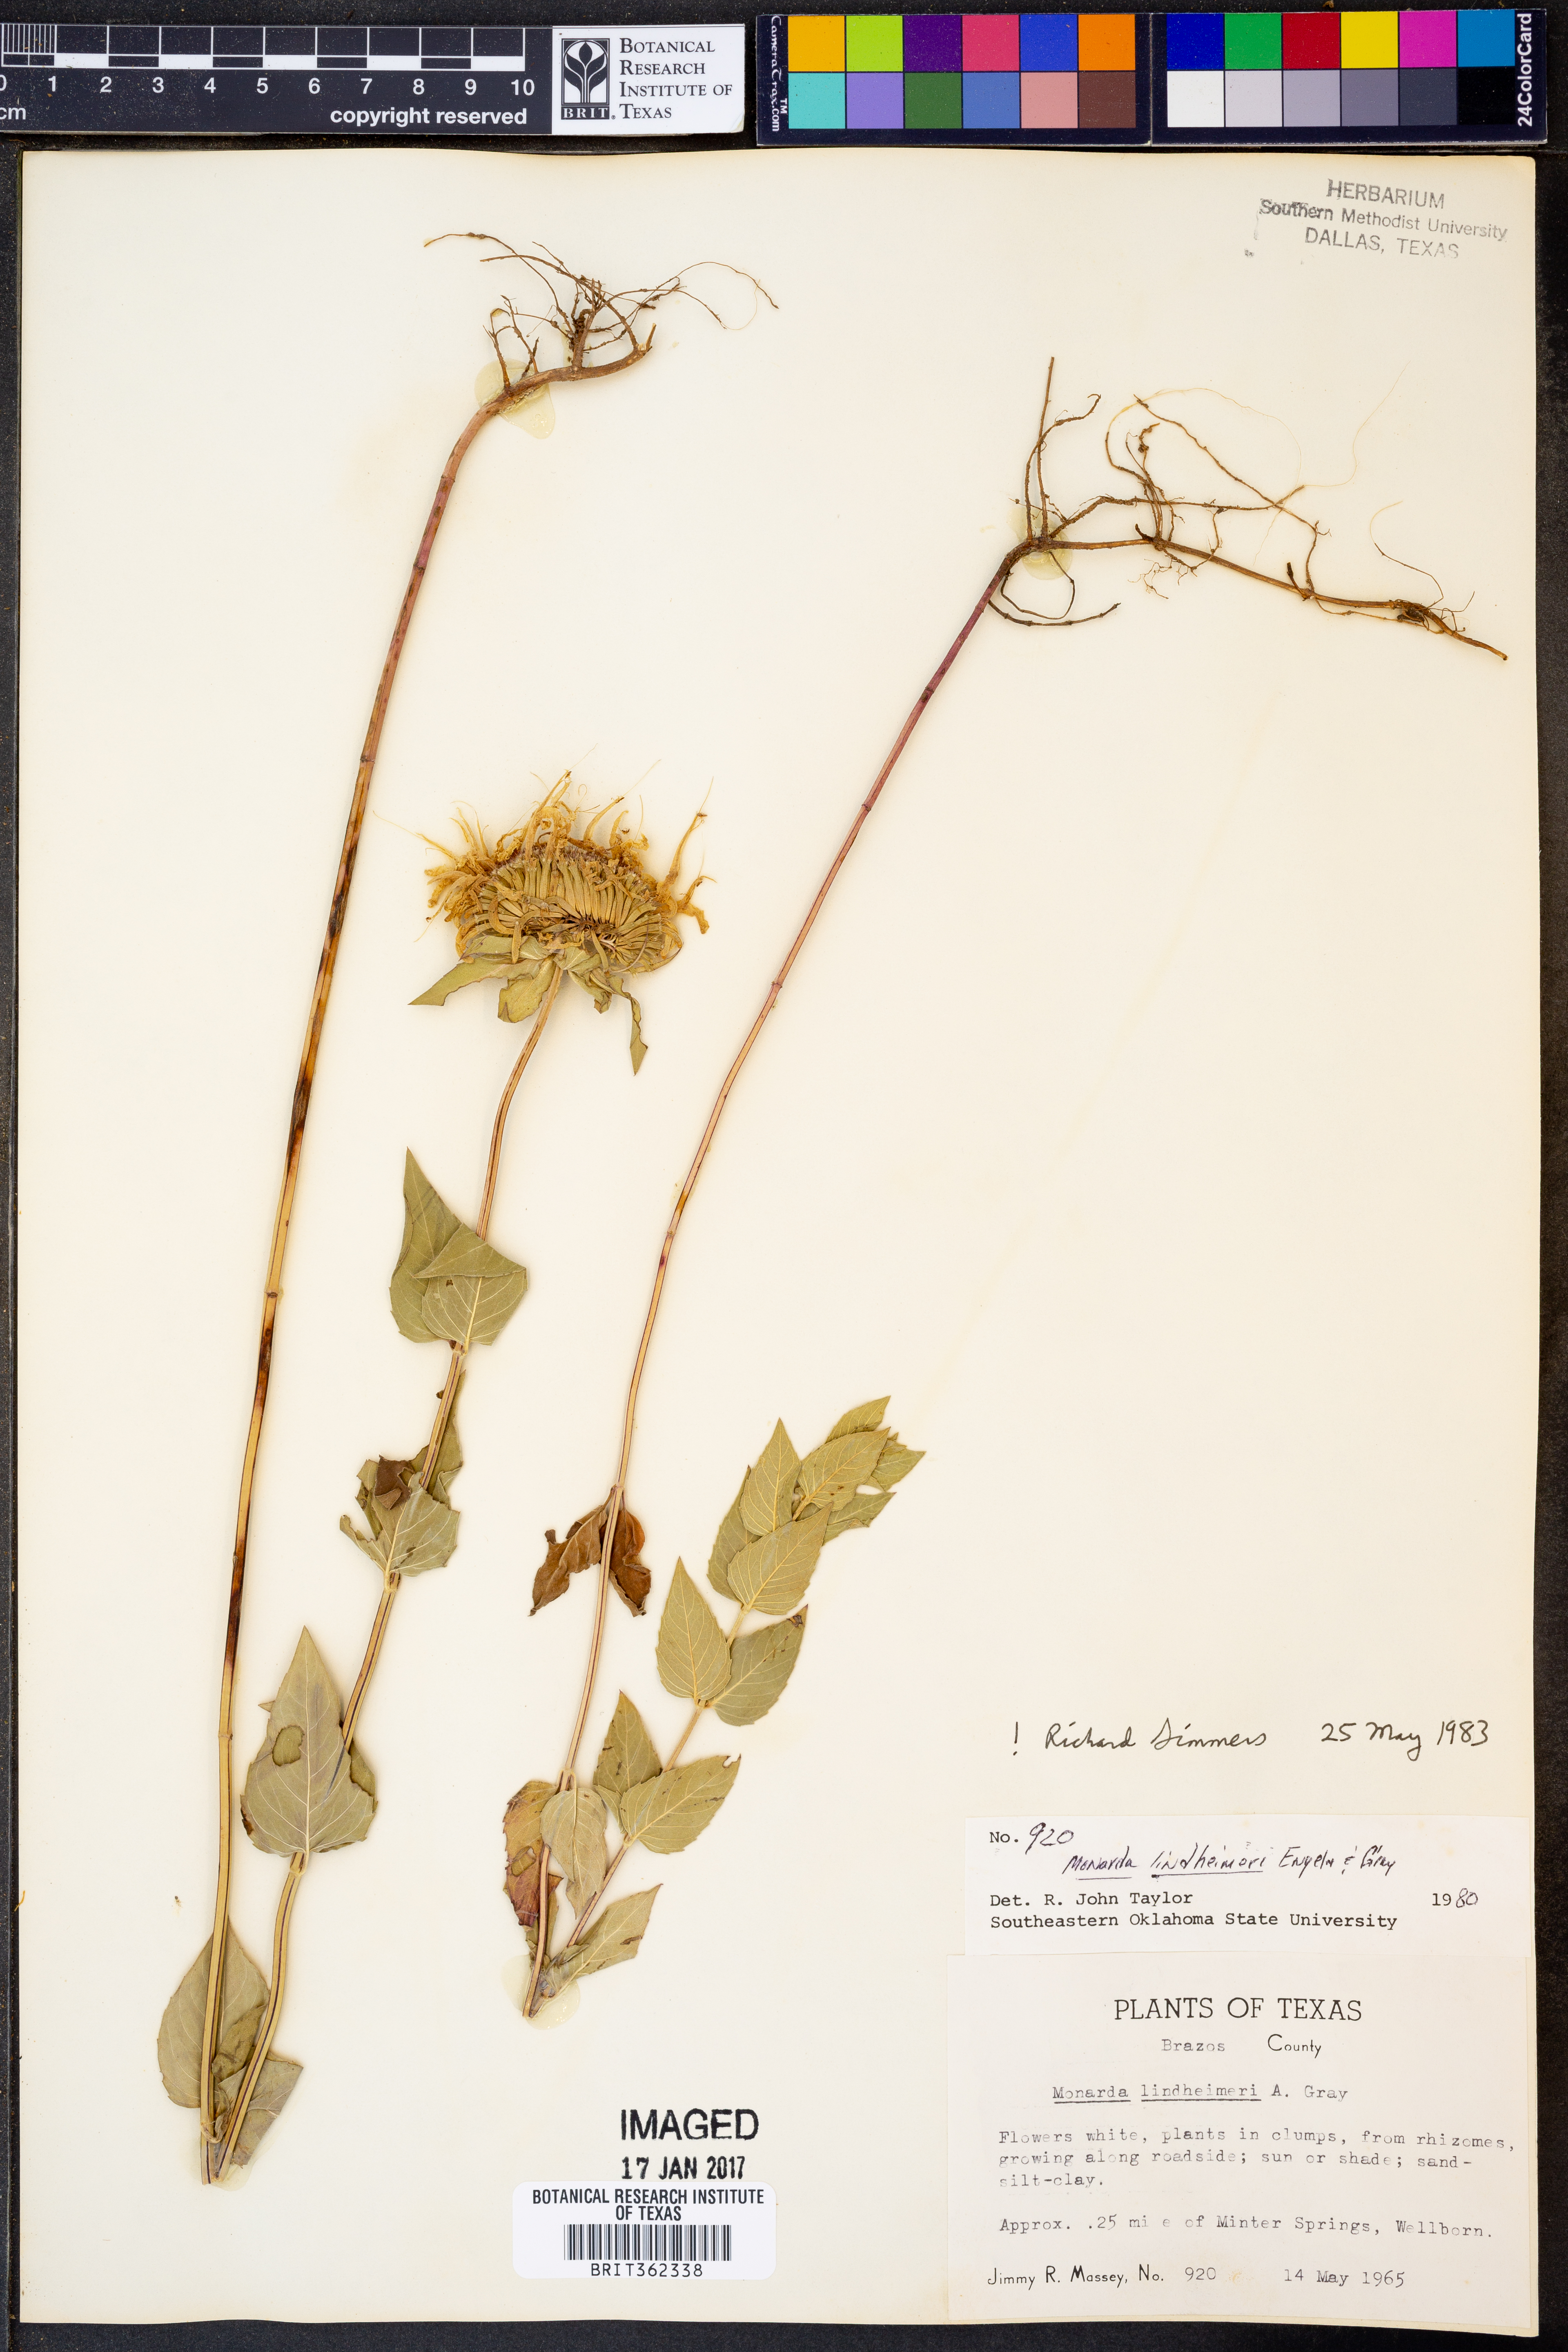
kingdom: Plantae
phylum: Tracheophyta
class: Magnoliopsida
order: Lamiales
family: Lamiaceae
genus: Monarda
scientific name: Monarda lindheimeri
